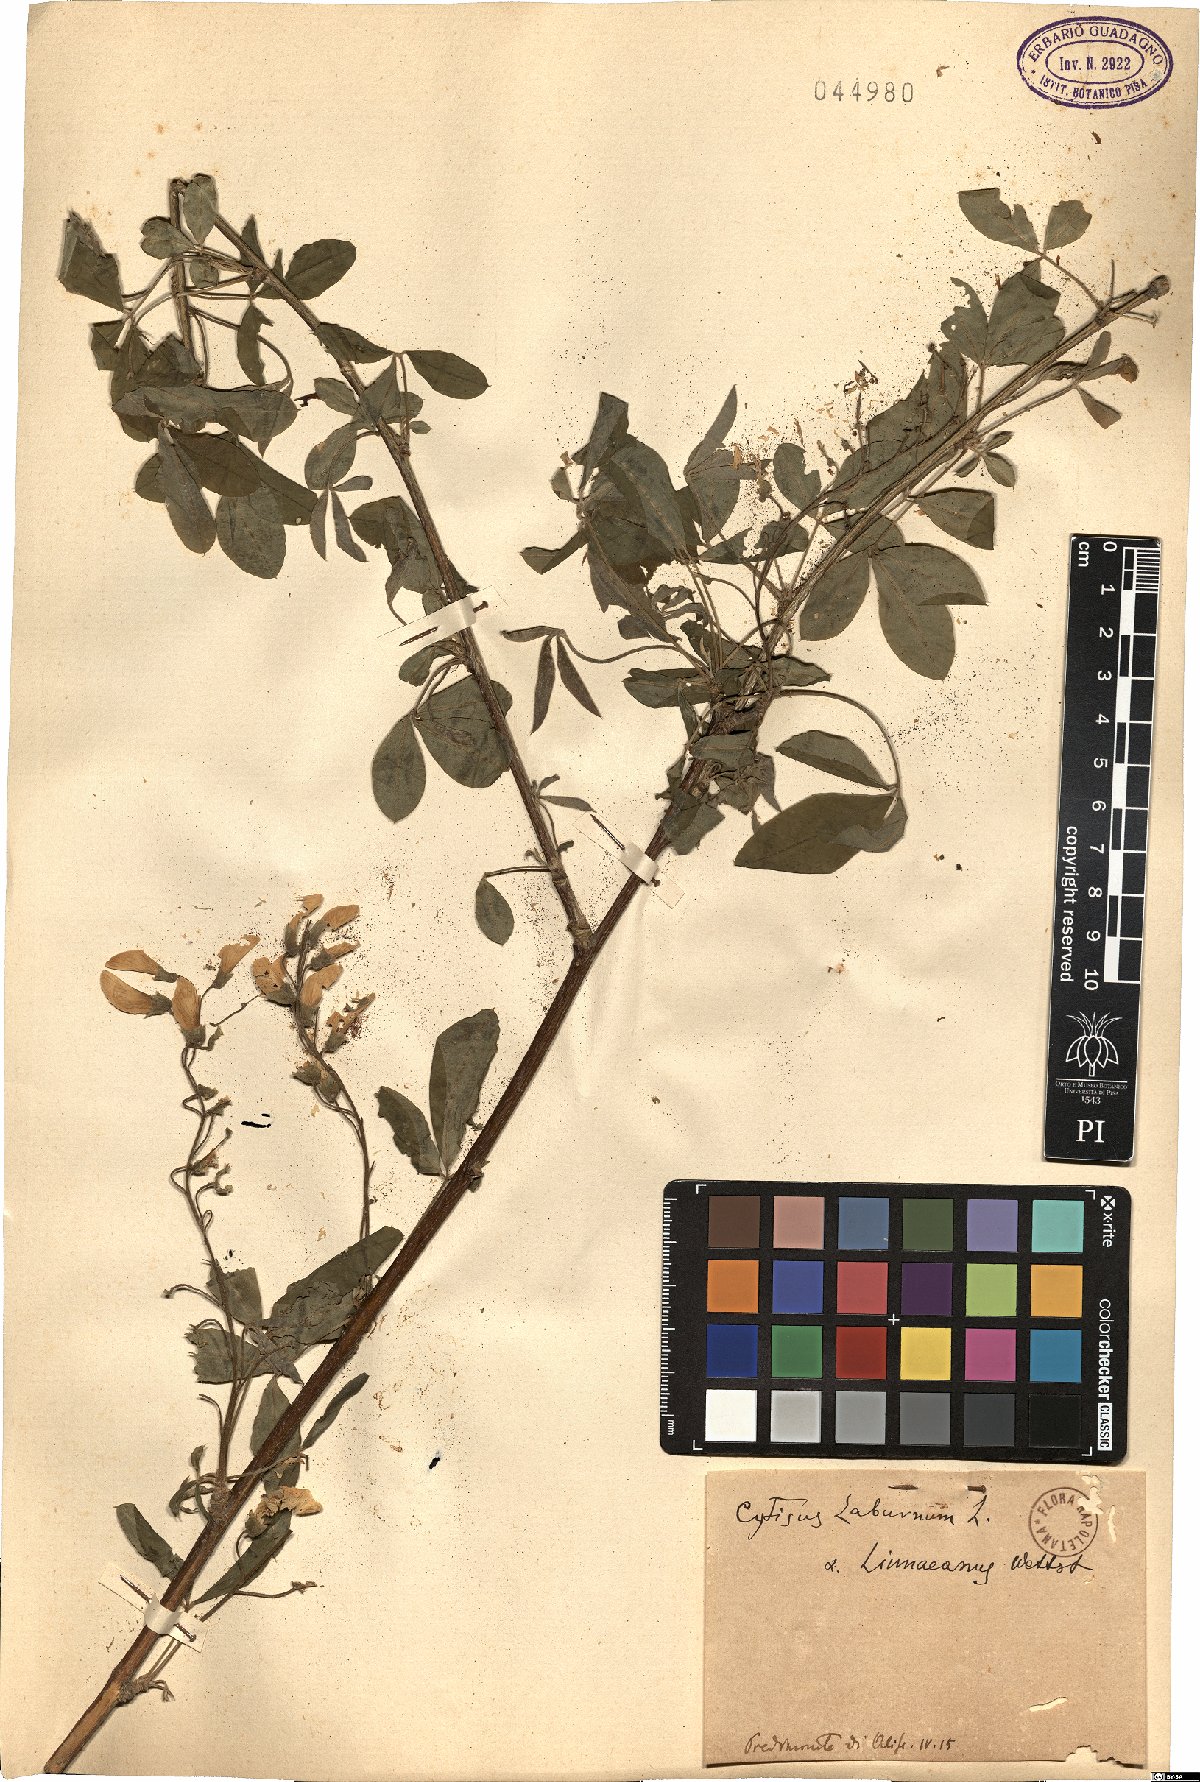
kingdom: Plantae
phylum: Tracheophyta
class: Magnoliopsida
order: Fabales
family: Fabaceae
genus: Laburnum
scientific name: Laburnum anagyroides
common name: Laburnum
